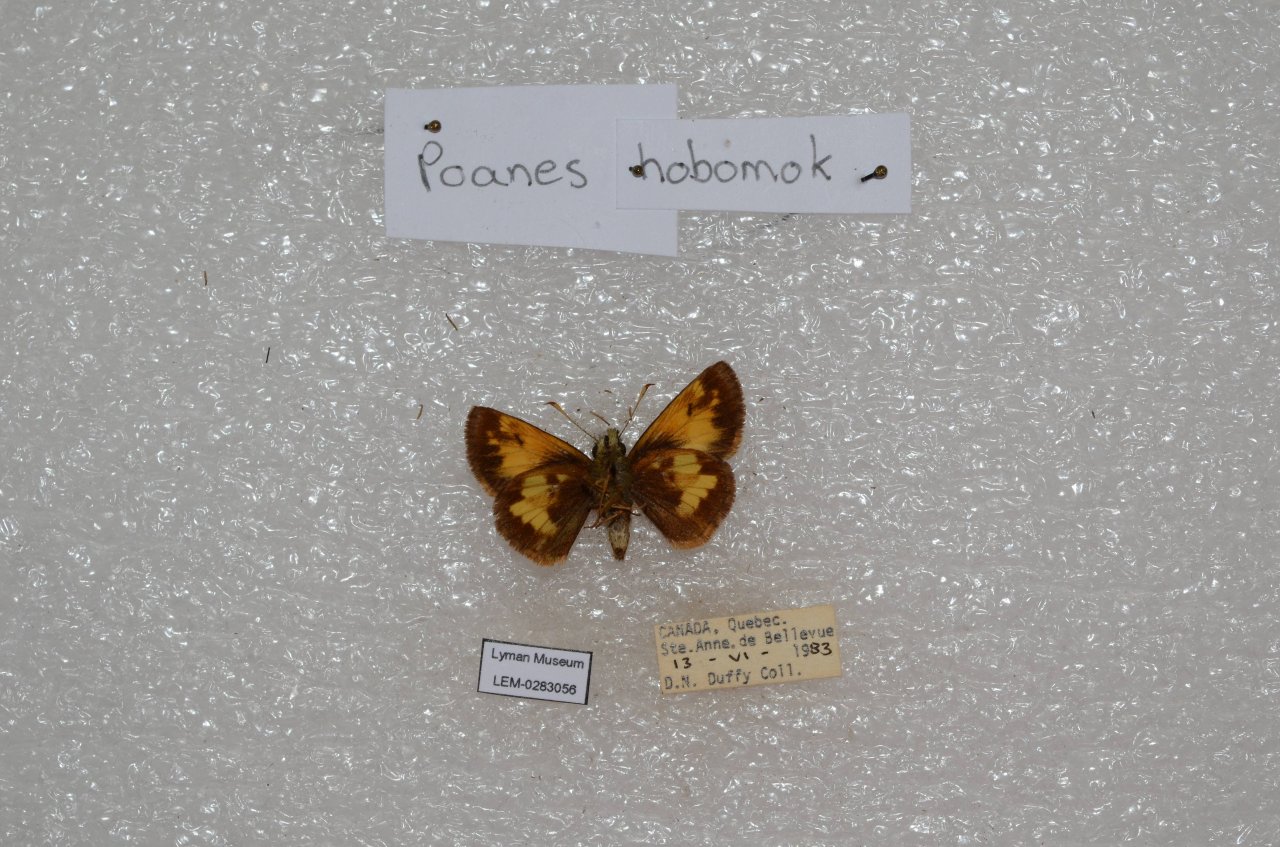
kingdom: Animalia
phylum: Arthropoda
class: Insecta
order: Lepidoptera
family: Hesperiidae
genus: Lon
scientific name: Lon hobomok
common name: Hobomok Skipper
